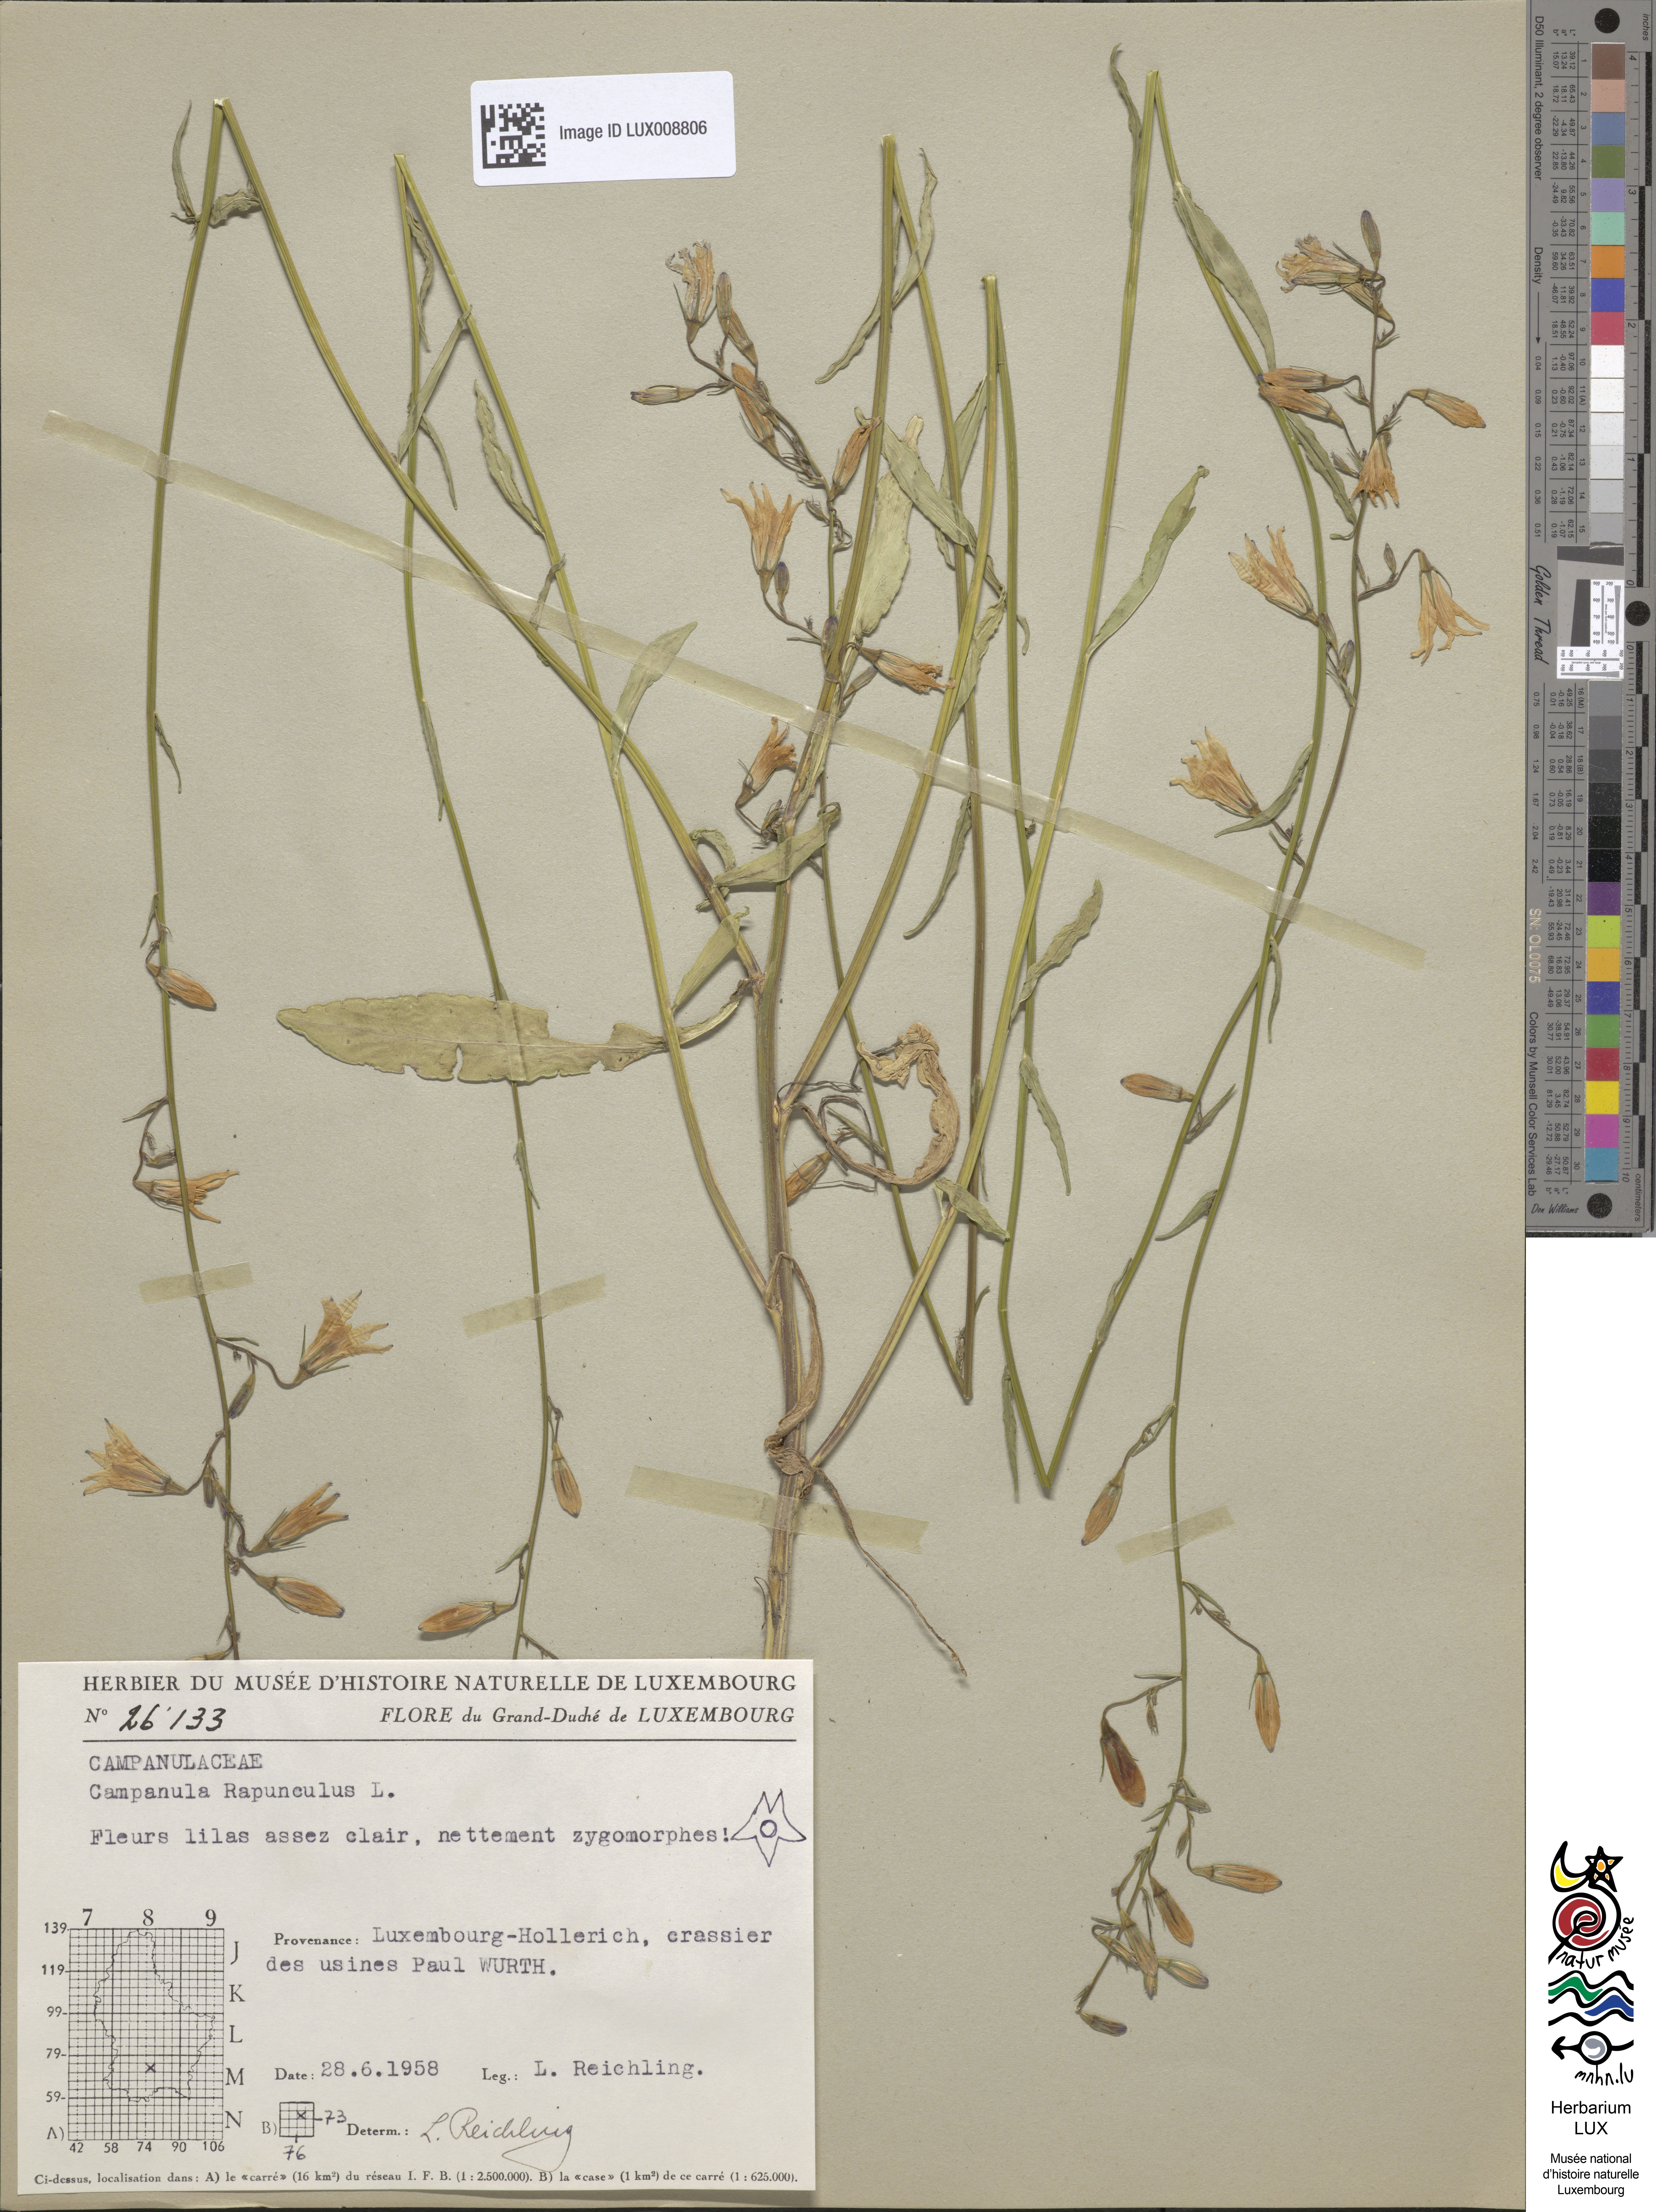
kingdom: Plantae
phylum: Tracheophyta
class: Magnoliopsida
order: Asterales
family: Campanulaceae
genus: Campanula
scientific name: Campanula rapunculus
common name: Rampion bellflower
